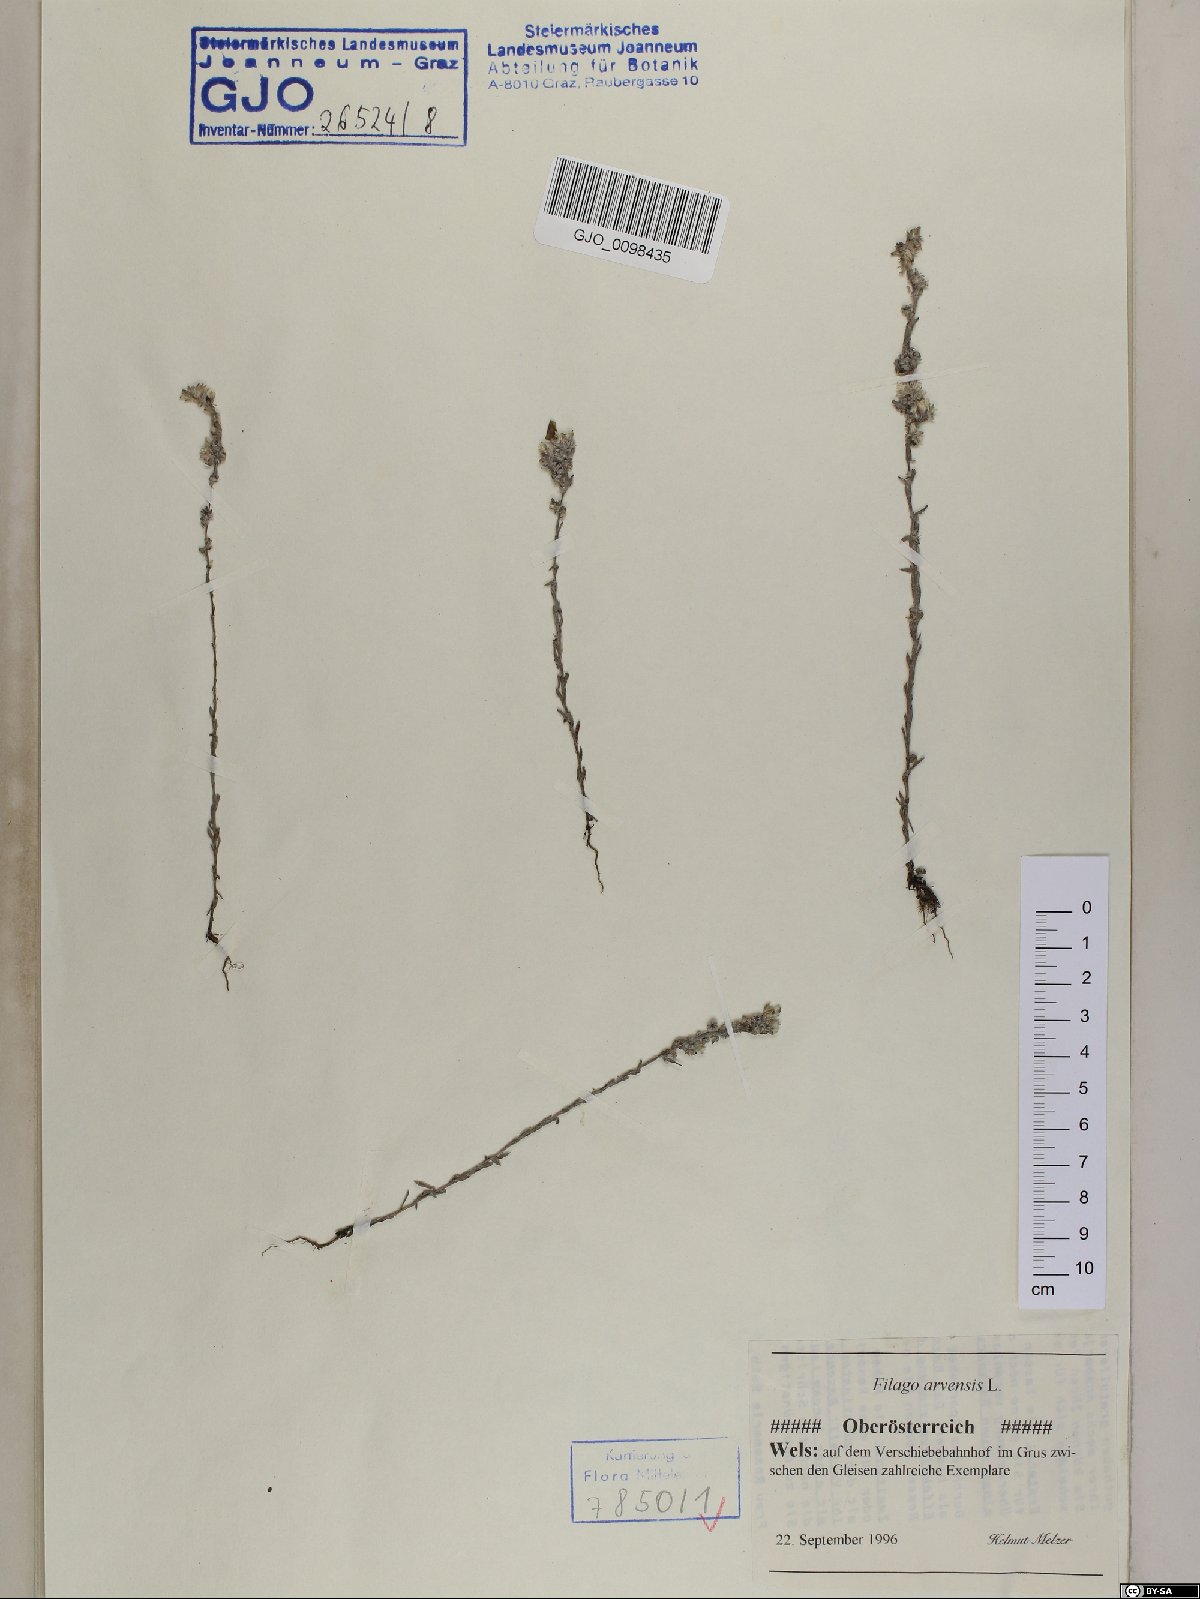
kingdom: Plantae
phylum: Tracheophyta
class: Magnoliopsida
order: Asterales
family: Asteraceae
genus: Filago
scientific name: Filago arvensis
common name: Field cudweed
